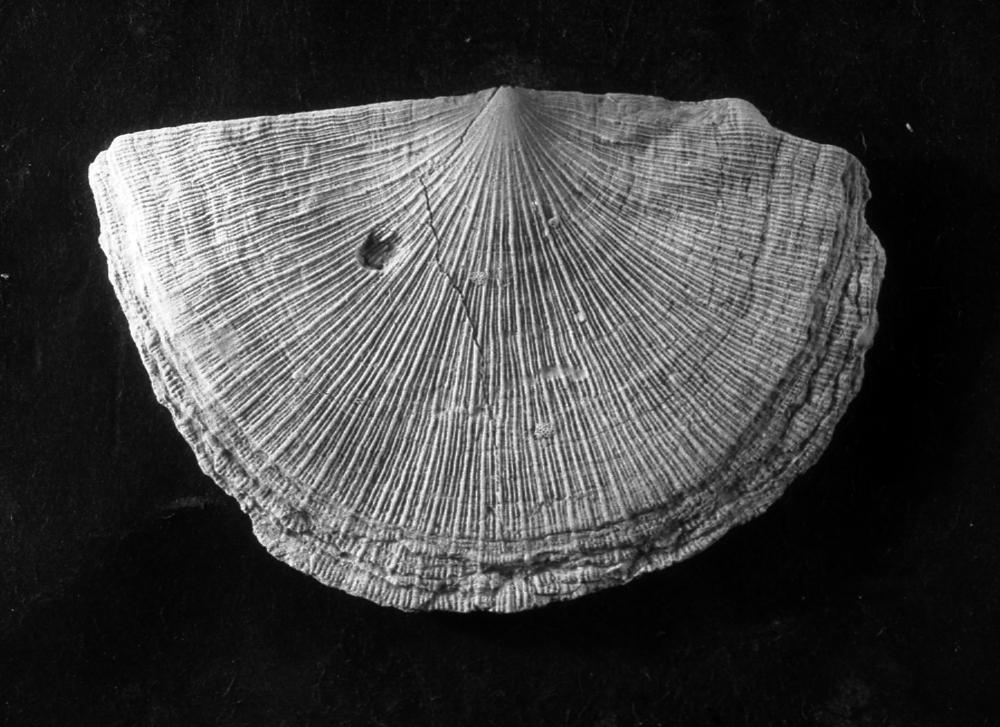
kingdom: Animalia
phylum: Brachiopoda
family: Strophomenidae
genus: Strophomena
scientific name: Strophomena Orthis asmusi
